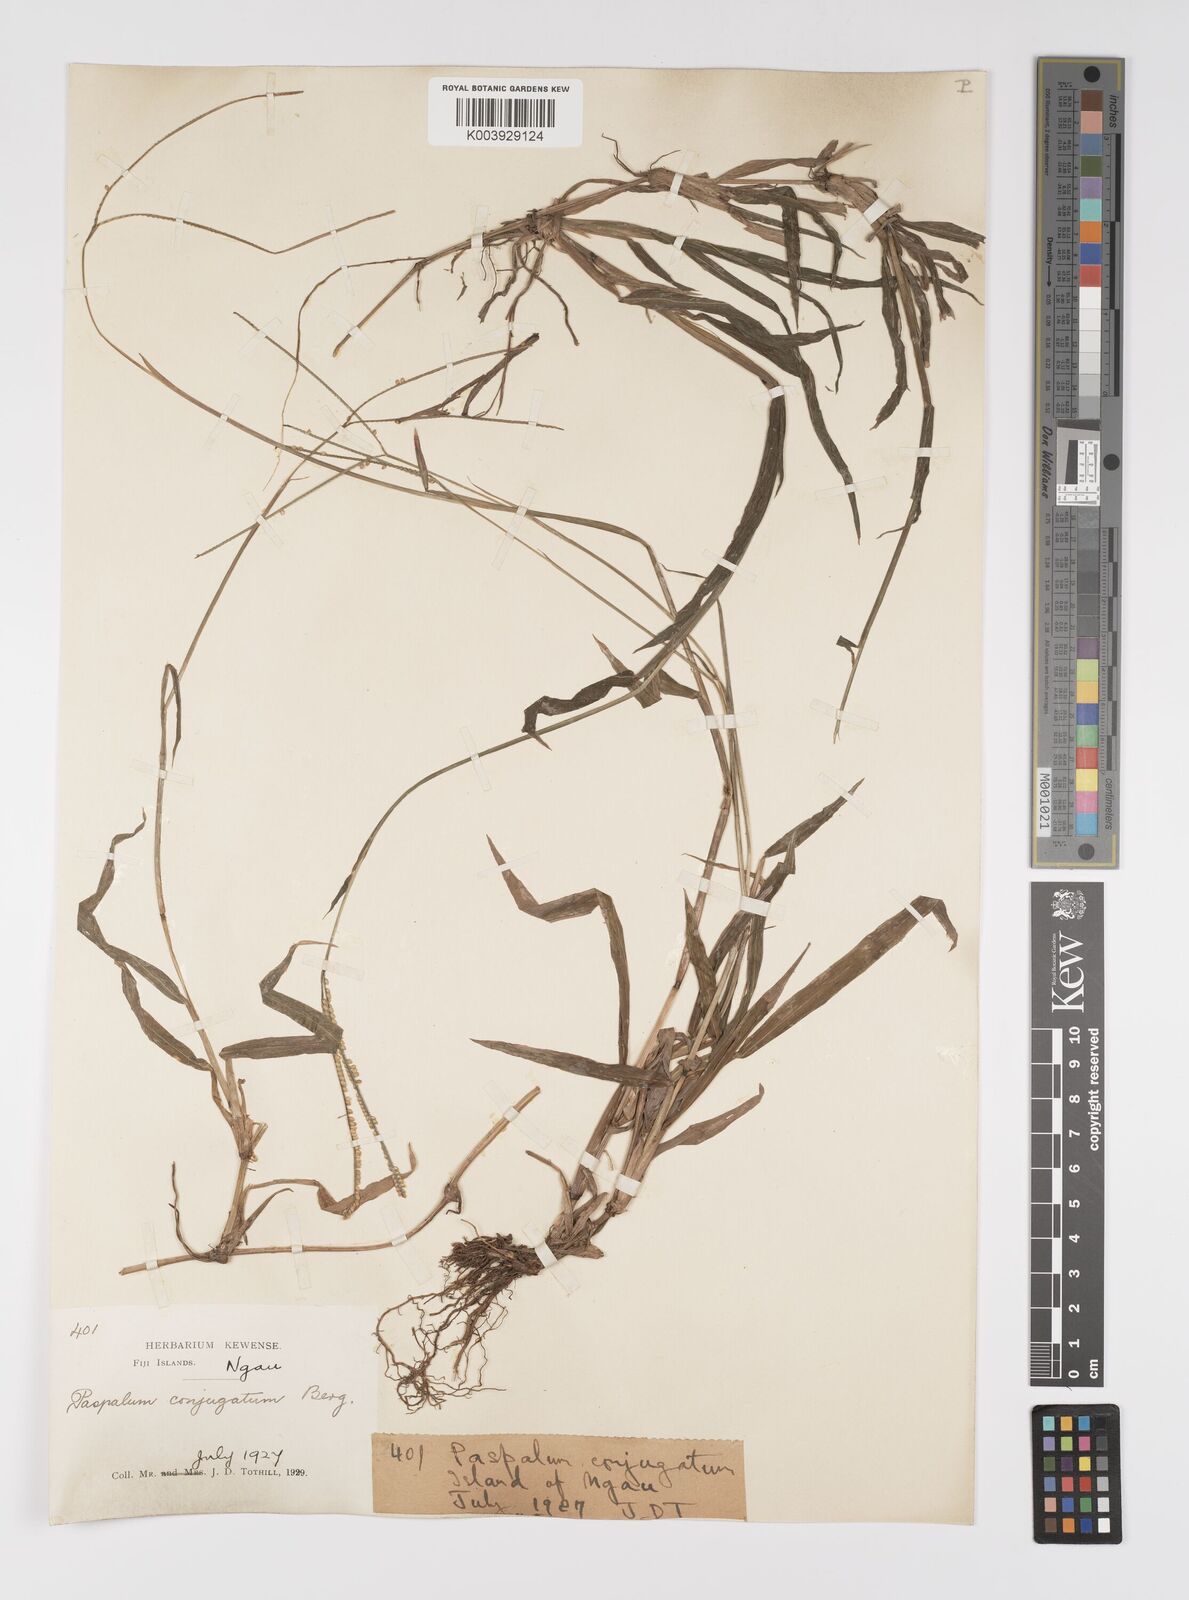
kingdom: Plantae
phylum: Tracheophyta
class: Liliopsida
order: Poales
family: Poaceae
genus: Paspalum
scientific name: Paspalum conjugatum
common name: Hilograss
